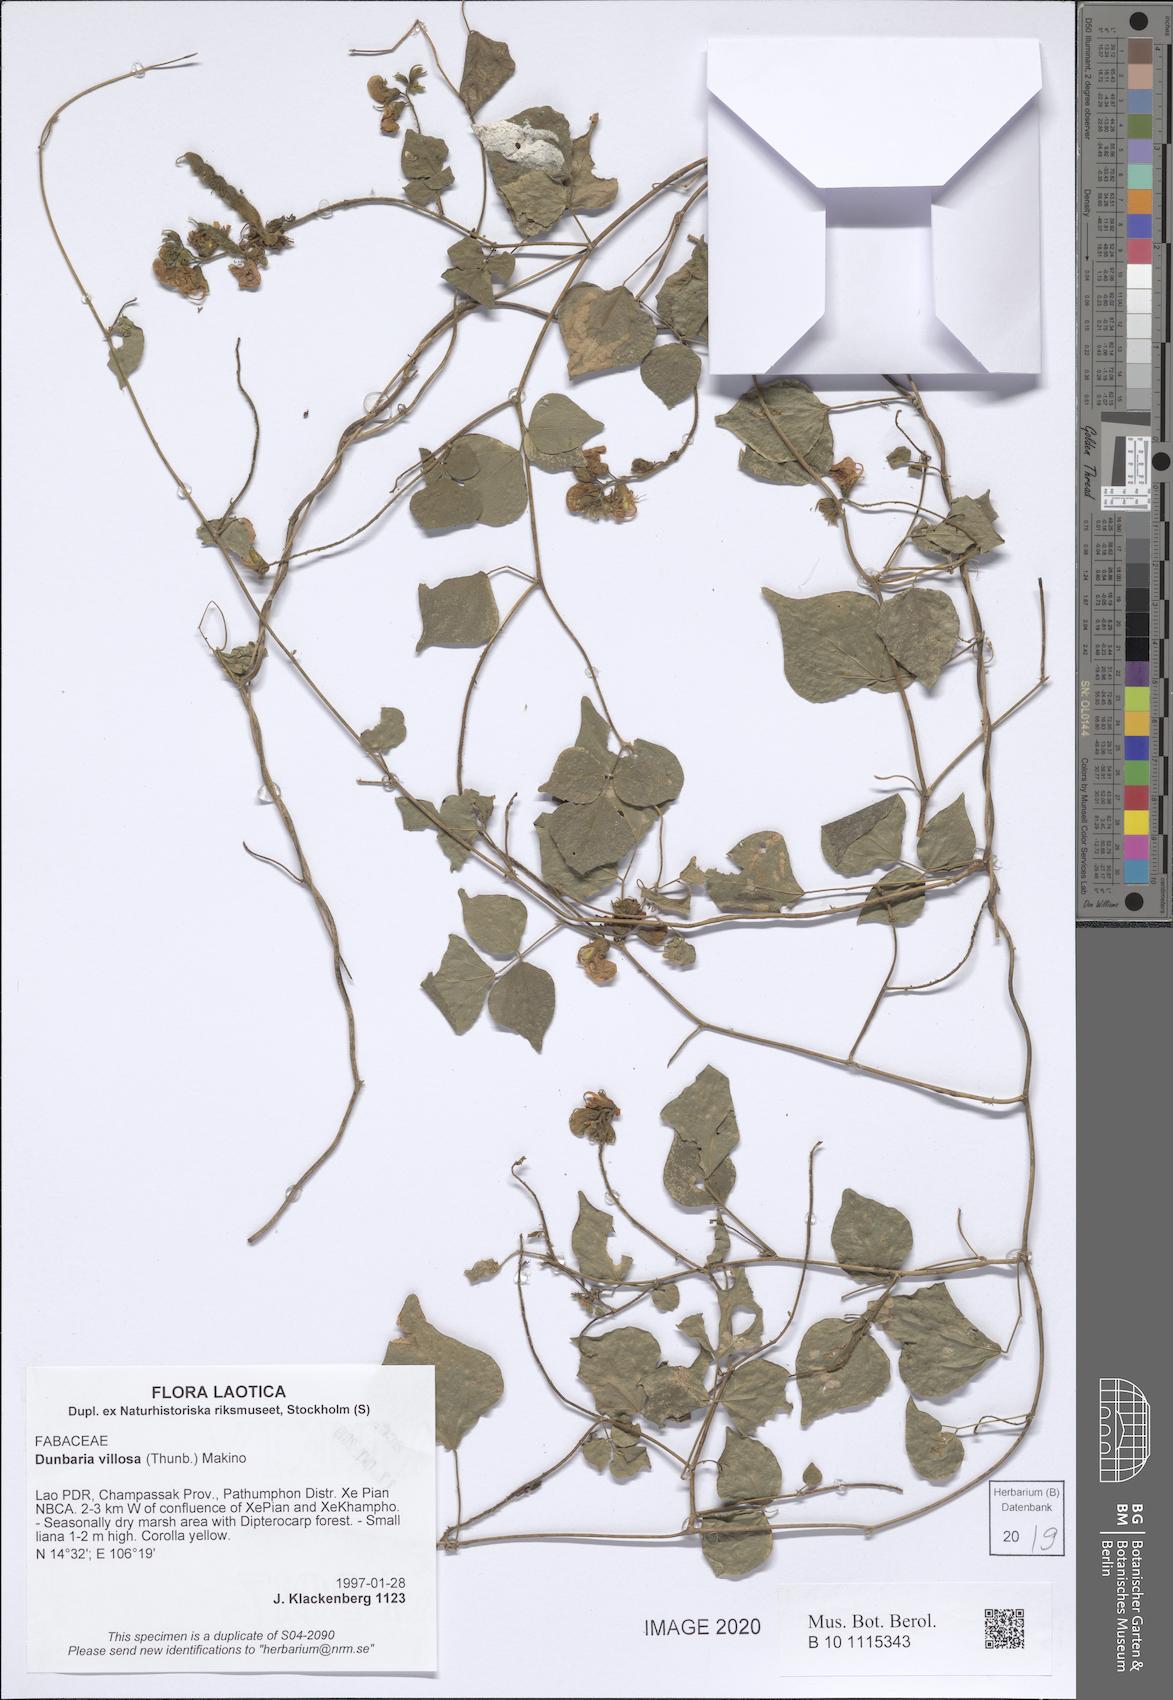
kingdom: Plantae
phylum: Tracheophyta
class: Magnoliopsida
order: Fabales
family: Fabaceae
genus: Dunbaria
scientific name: Dunbaria villosa
